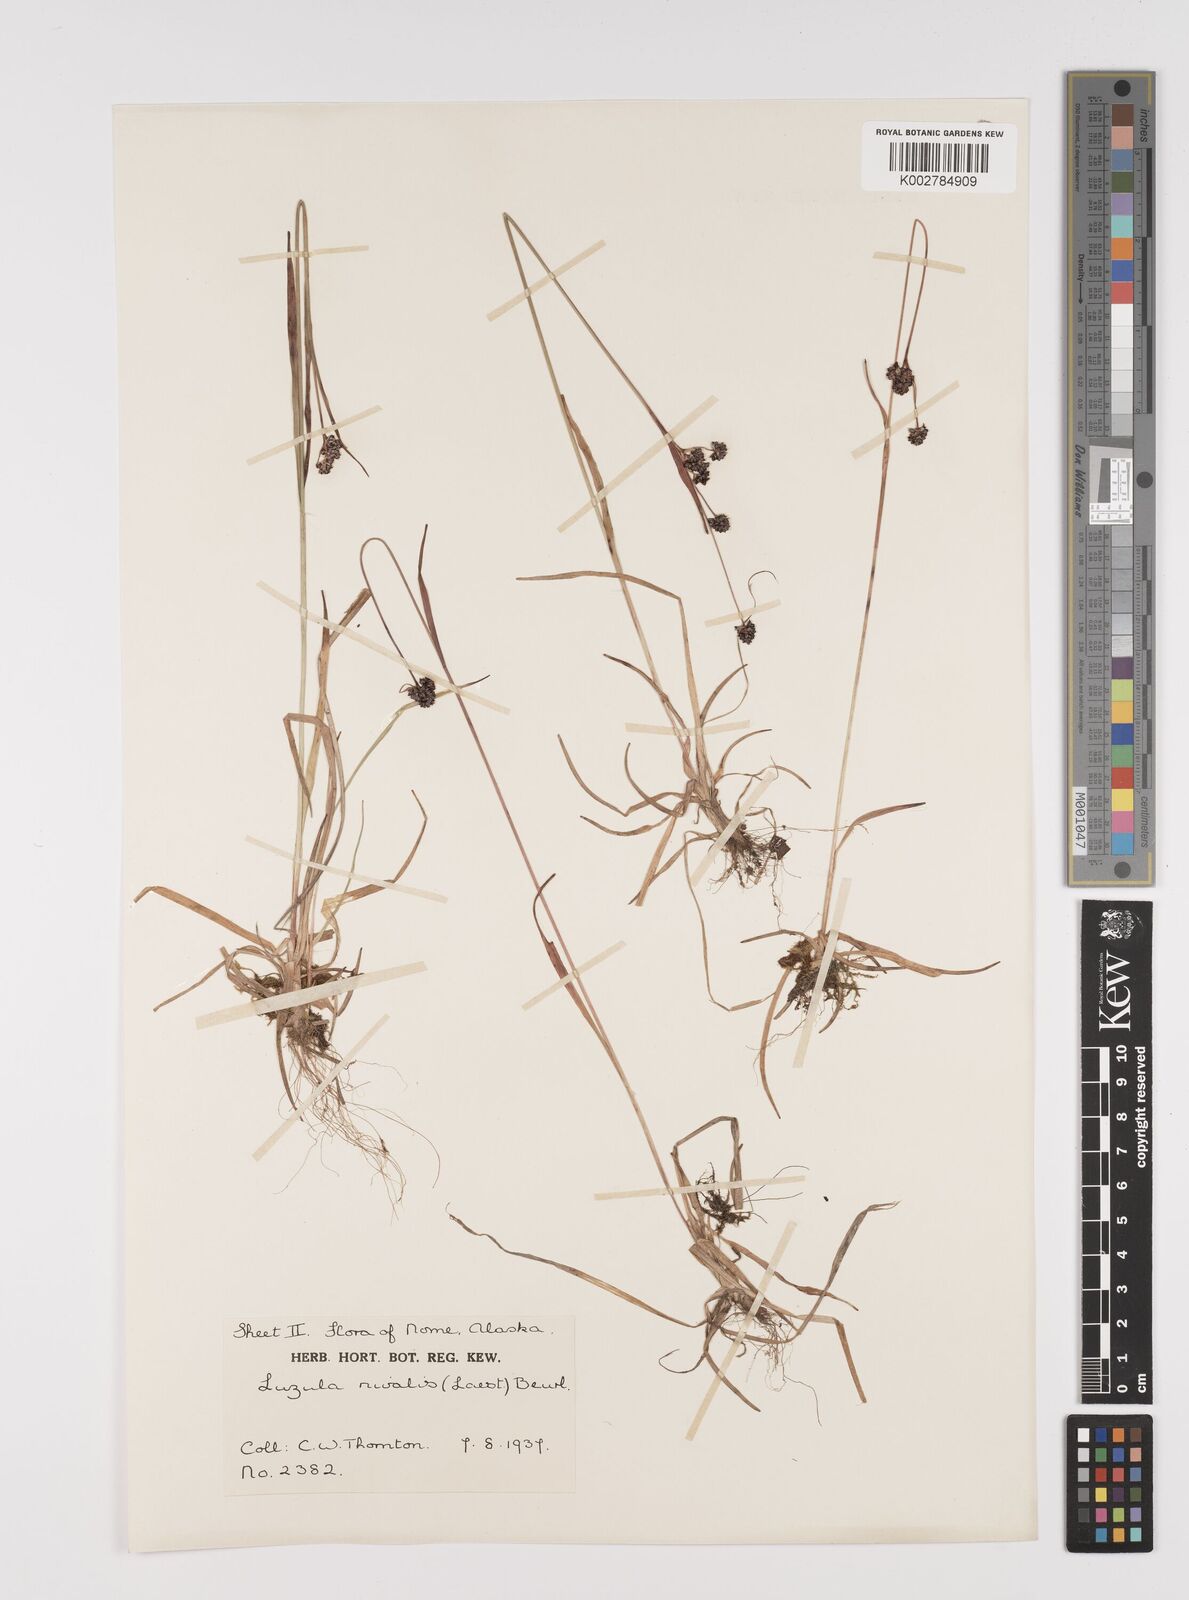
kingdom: Plantae
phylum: Tracheophyta
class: Liliopsida
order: Poales
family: Juncaceae
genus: Luzula
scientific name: Luzula nivalis
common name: Arctic woodrush
